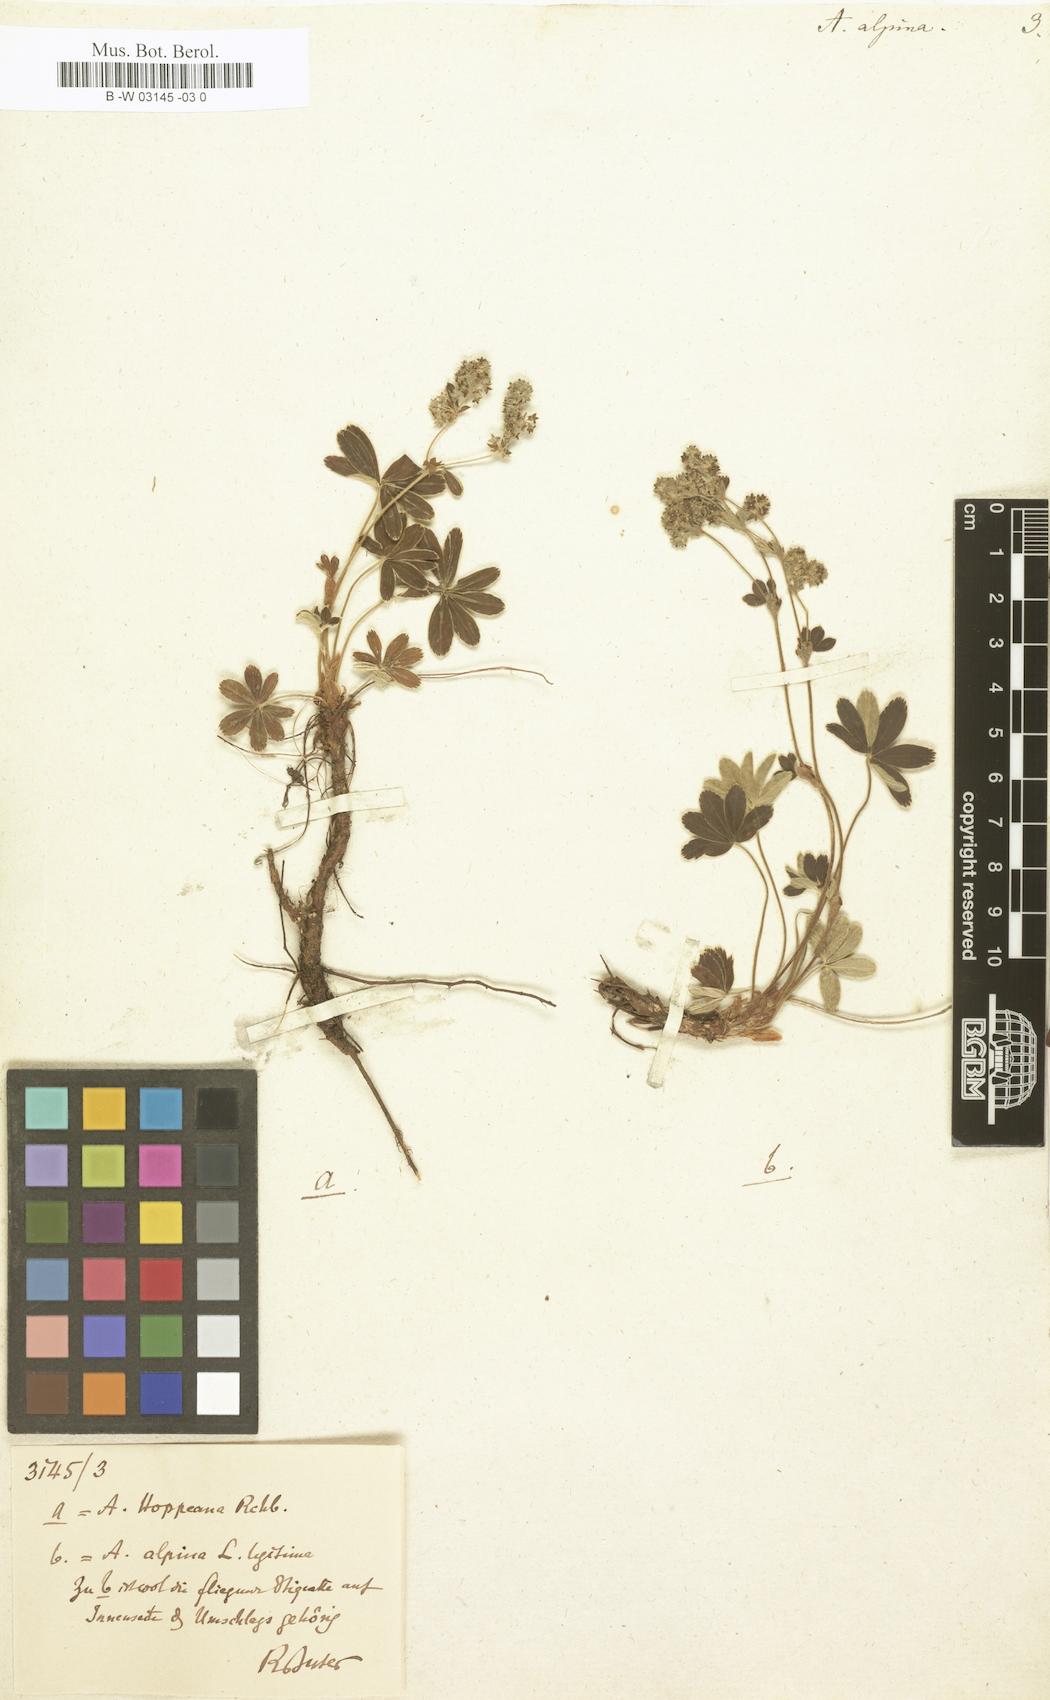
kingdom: Plantae
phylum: Tracheophyta
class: Magnoliopsida
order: Rosales
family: Rosaceae
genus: Alchemilla
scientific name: Alchemilla alpina
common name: Alpine lady's-mantle
